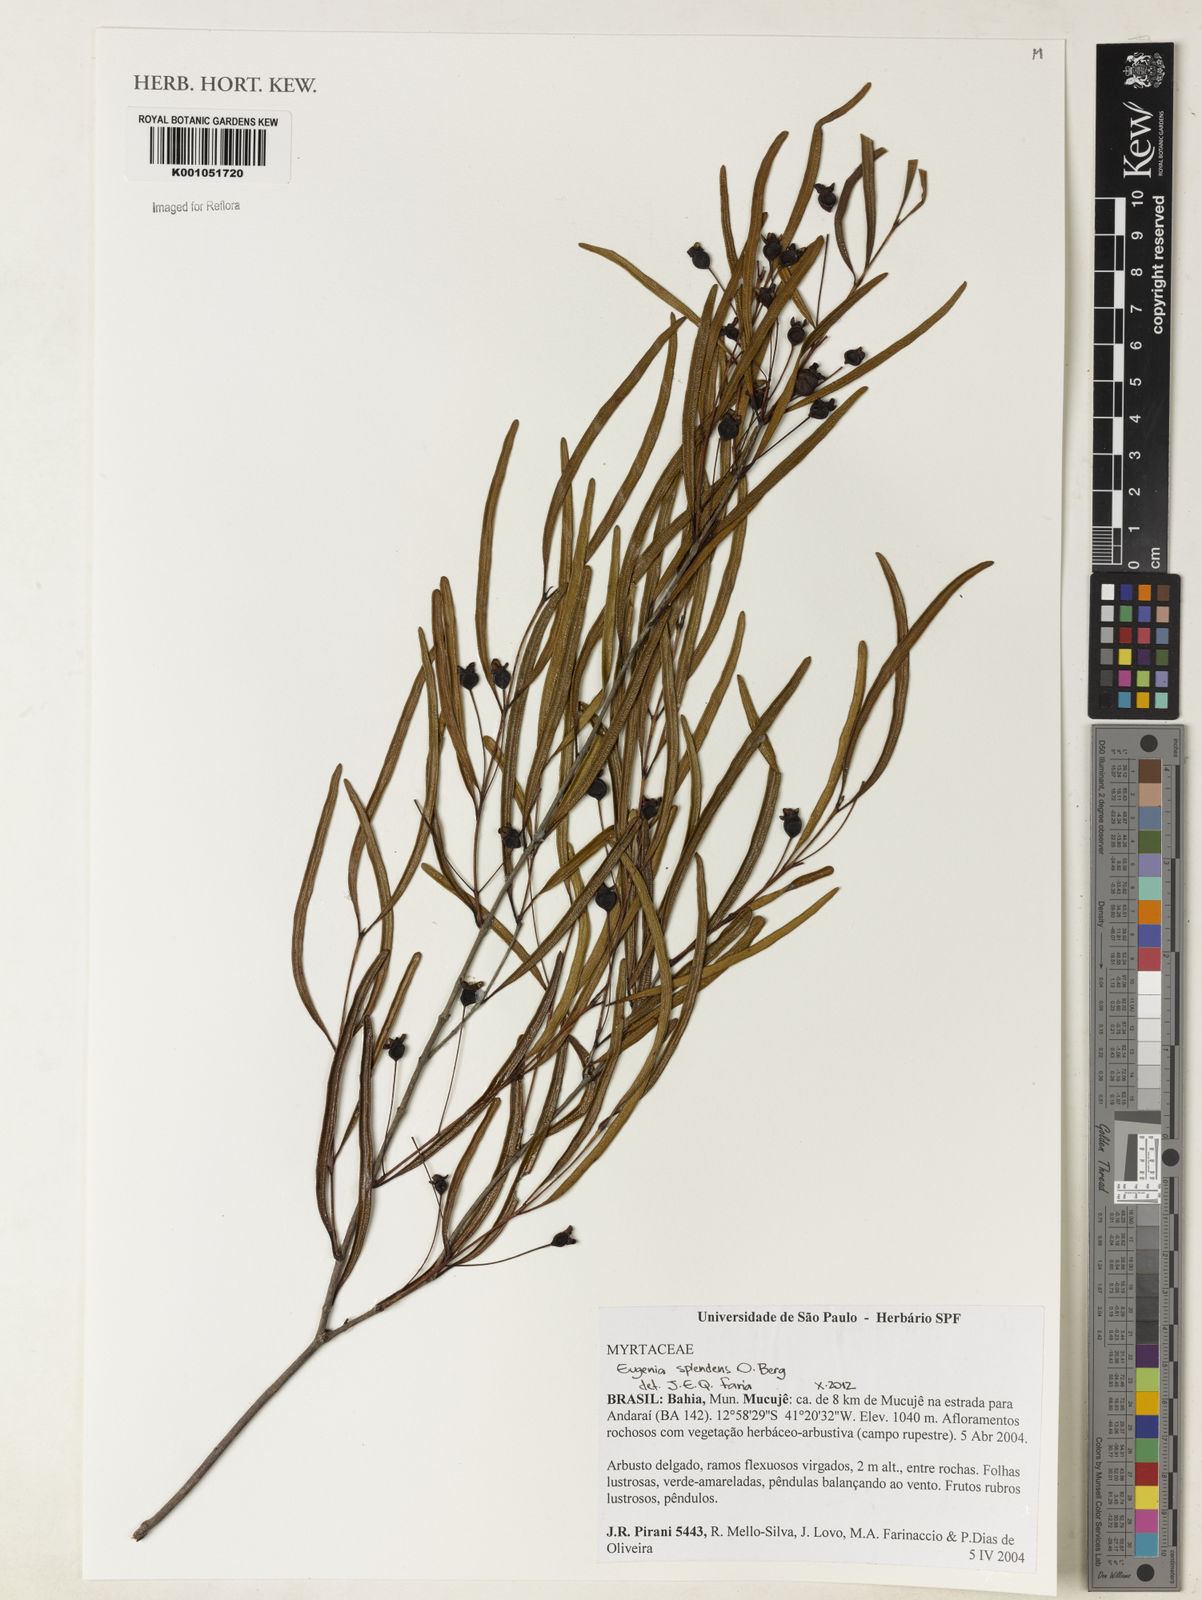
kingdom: Plantae
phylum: Tracheophyta
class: Magnoliopsida
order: Myrtales
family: Myrtaceae
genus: Eugenia
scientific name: Eugenia splendens
